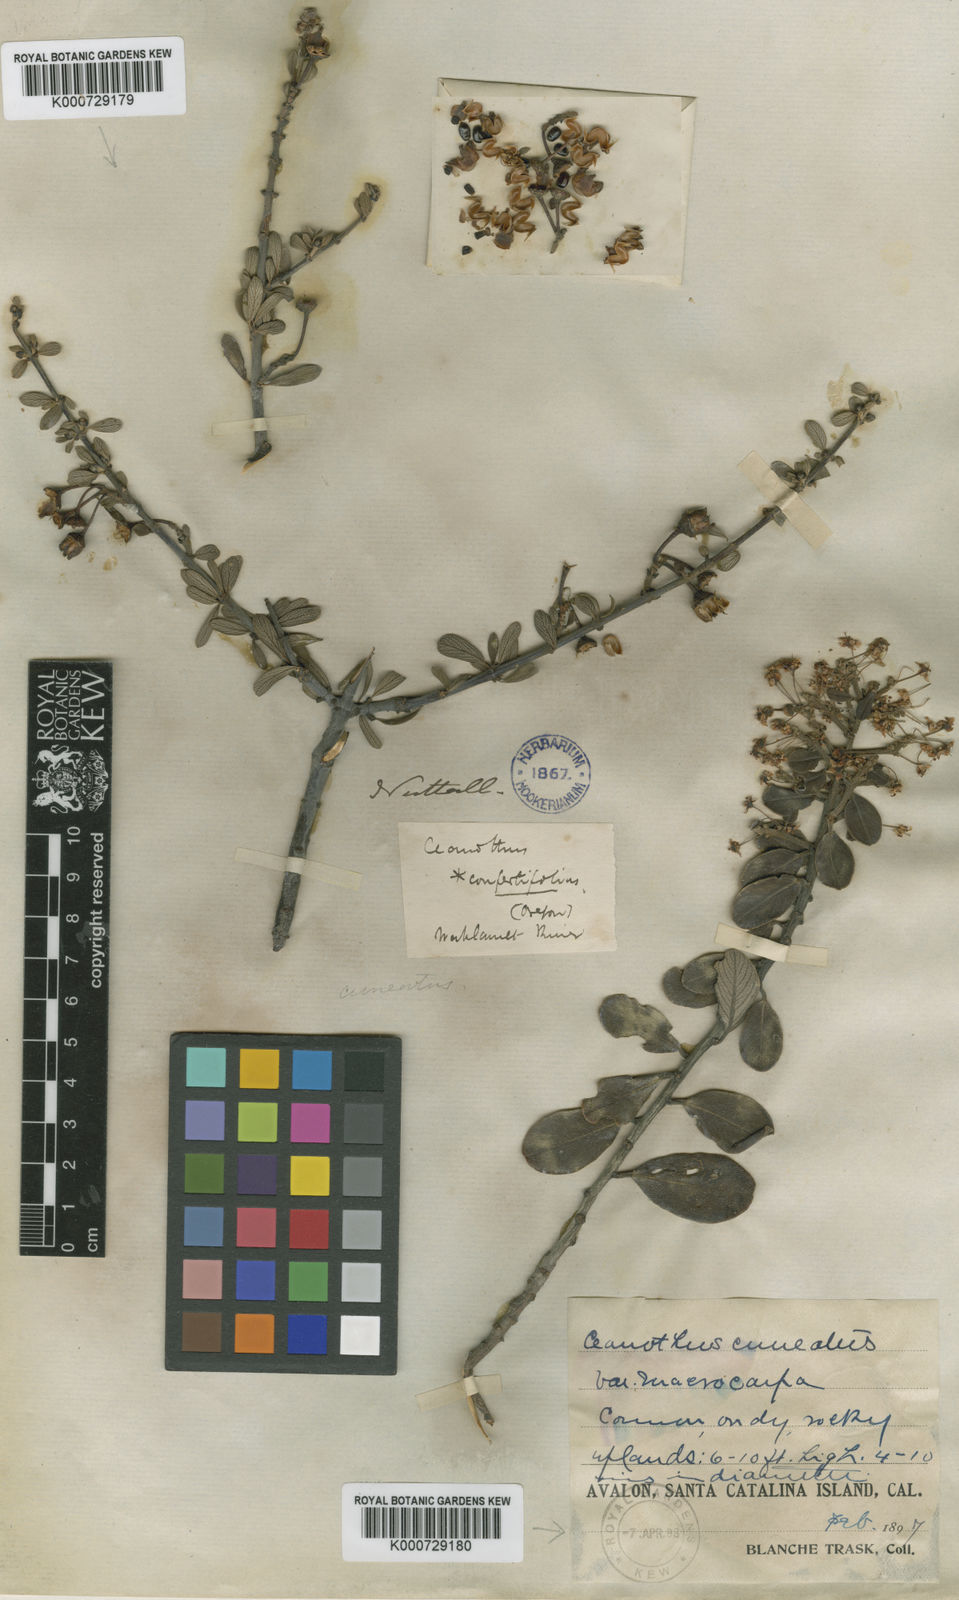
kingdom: Plantae
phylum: Tracheophyta
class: Magnoliopsida
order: Rosales
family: Rhamnaceae
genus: Ceanothus
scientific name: Ceanothus cuneatus
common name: Cuneate ceanothus
